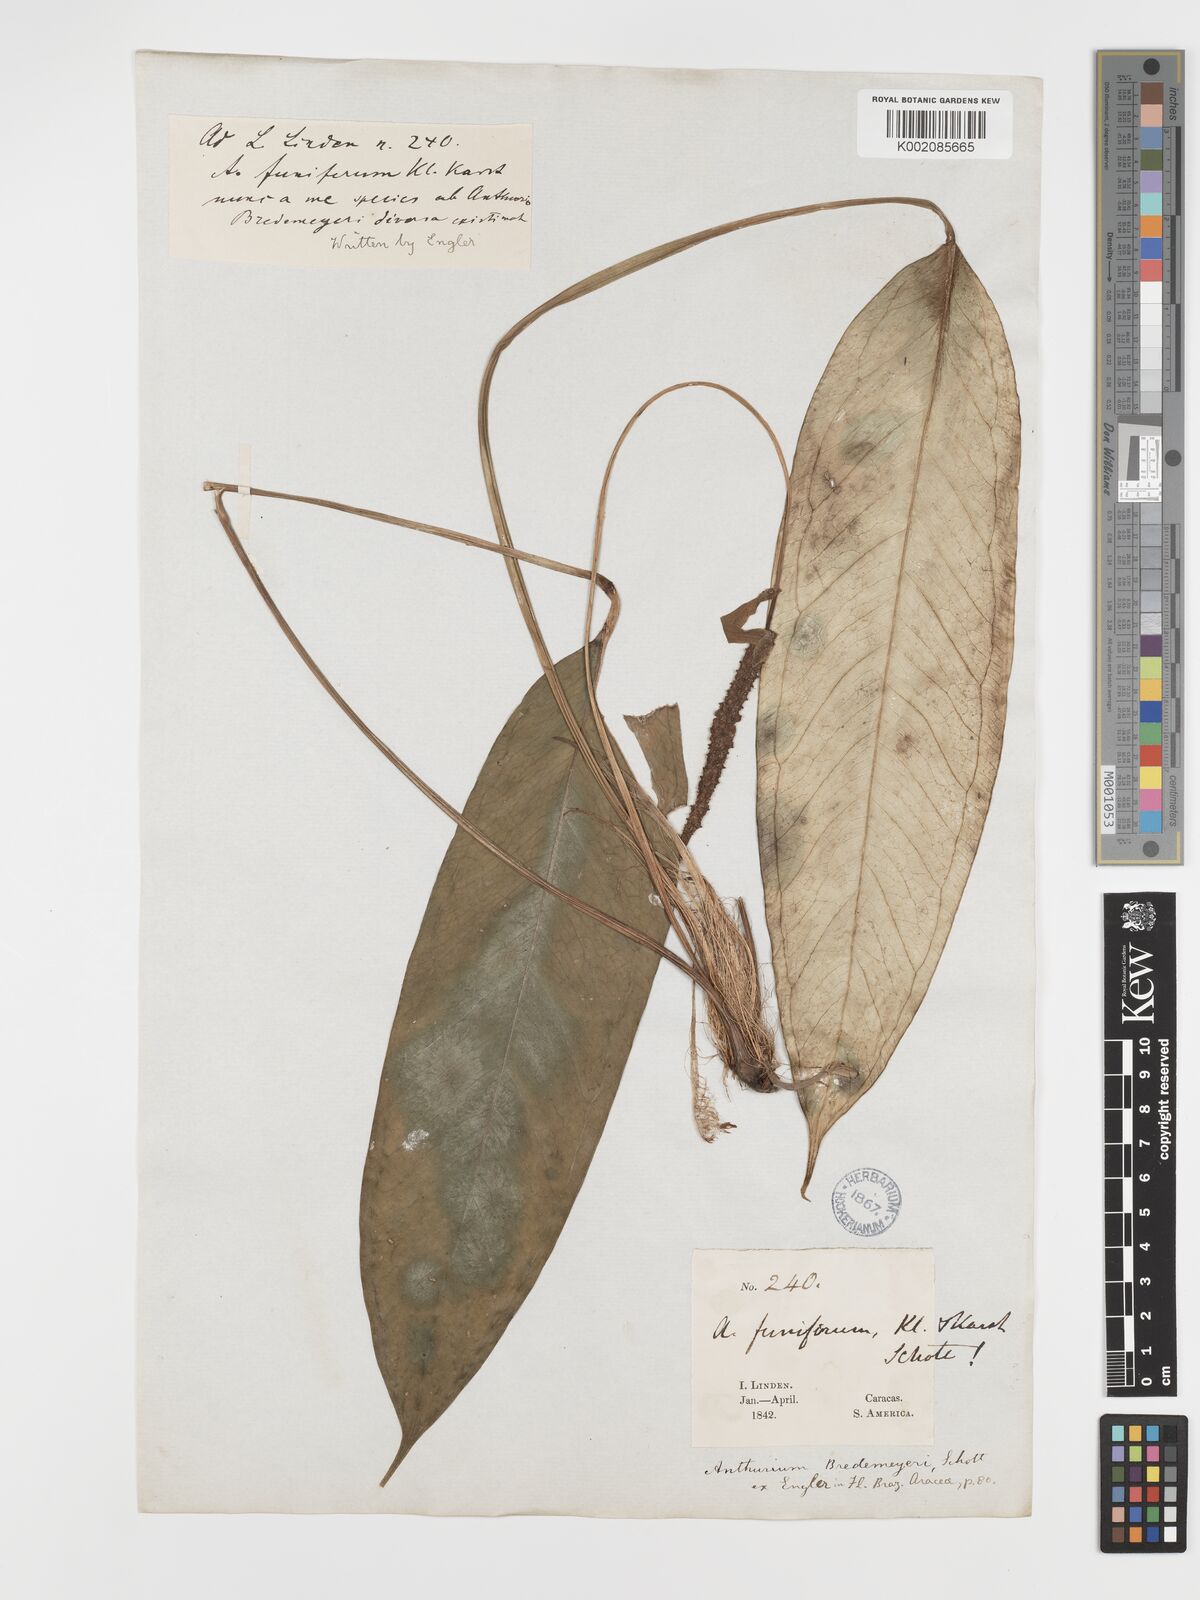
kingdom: Plantae
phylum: Tracheophyta
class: Liliopsida
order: Alismatales
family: Araceae
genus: Anthurium
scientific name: Anthurium bredemeyeri
